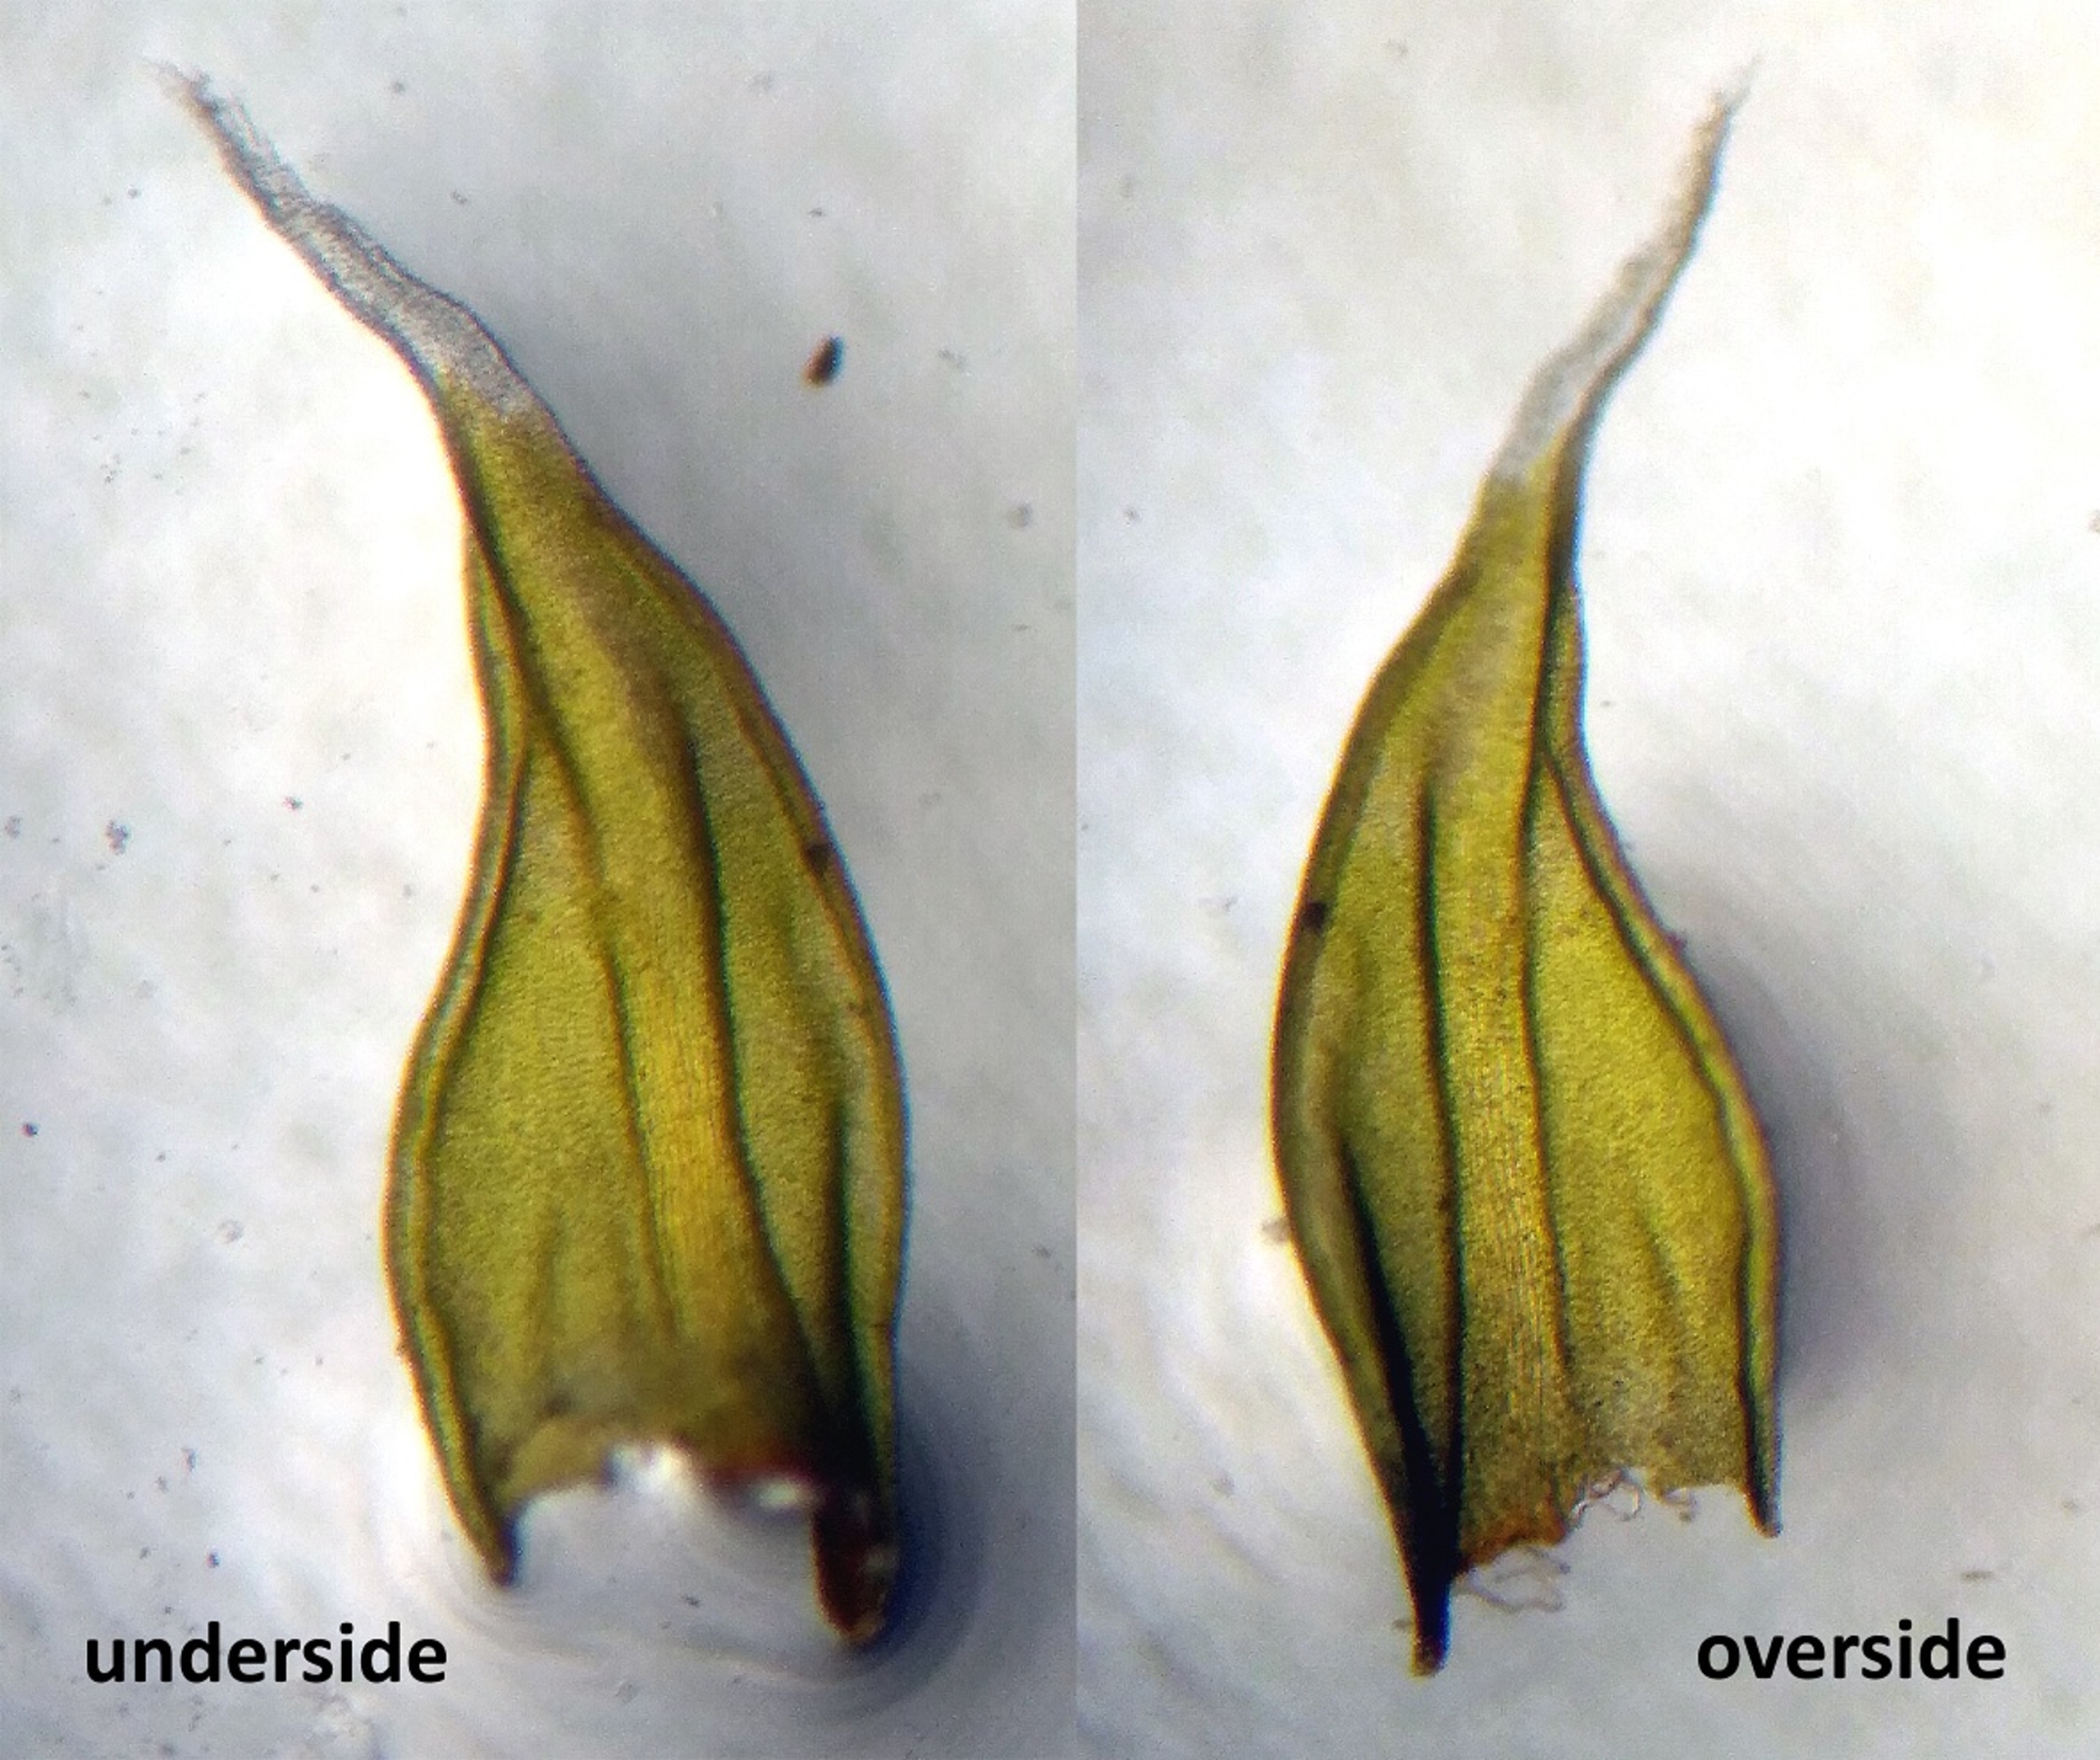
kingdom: Plantae
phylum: Bryophyta
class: Bryopsida
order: Grimmiales
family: Grimmiaceae
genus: Niphotrichum
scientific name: Niphotrichum canescens
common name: Sand-børstemos
